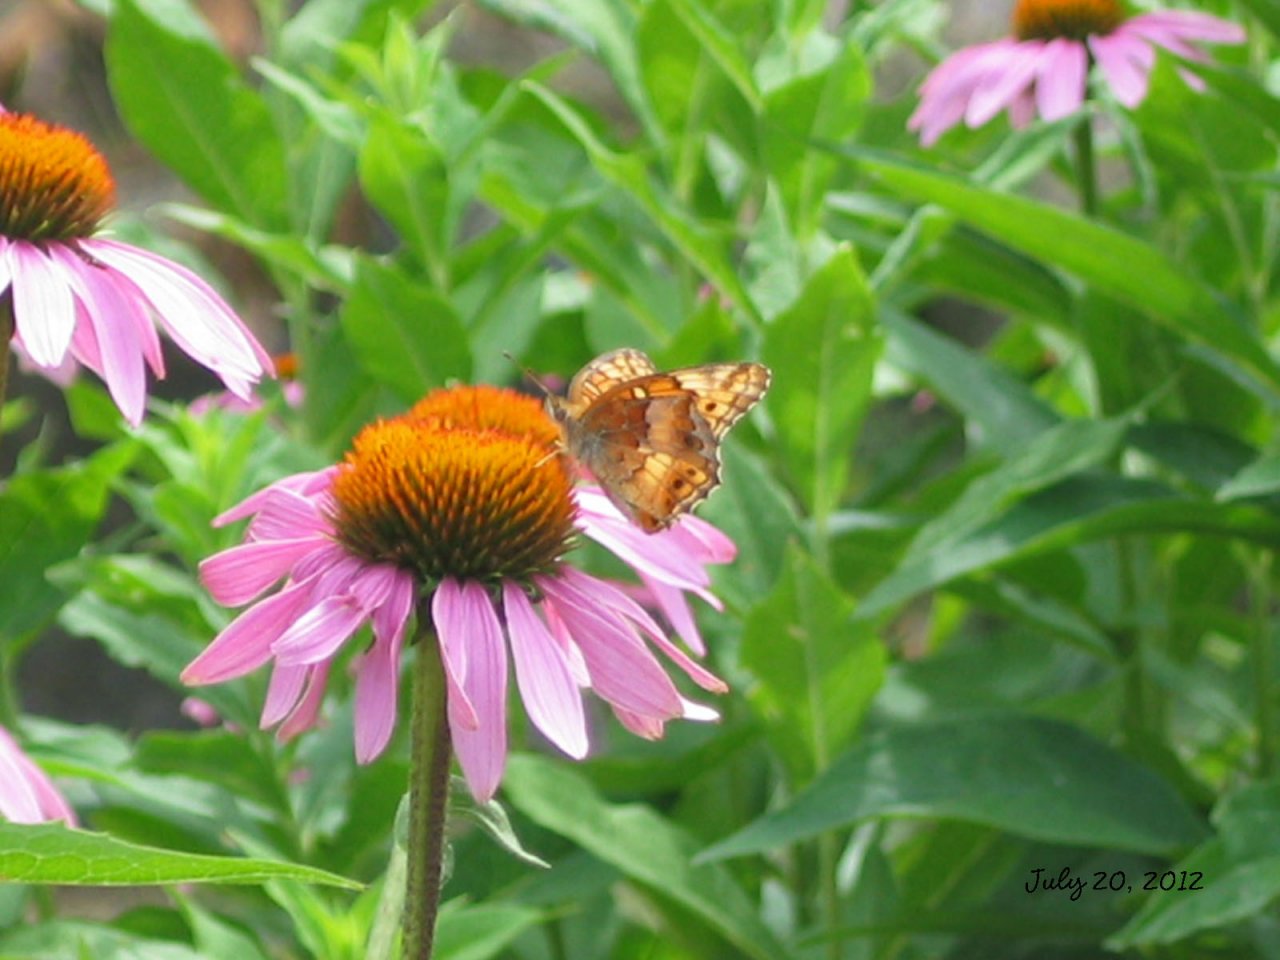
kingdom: Animalia
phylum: Arthropoda
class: Insecta
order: Lepidoptera
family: Nymphalidae
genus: Euptoieta
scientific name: Euptoieta claudia
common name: Variegated Fritillary
